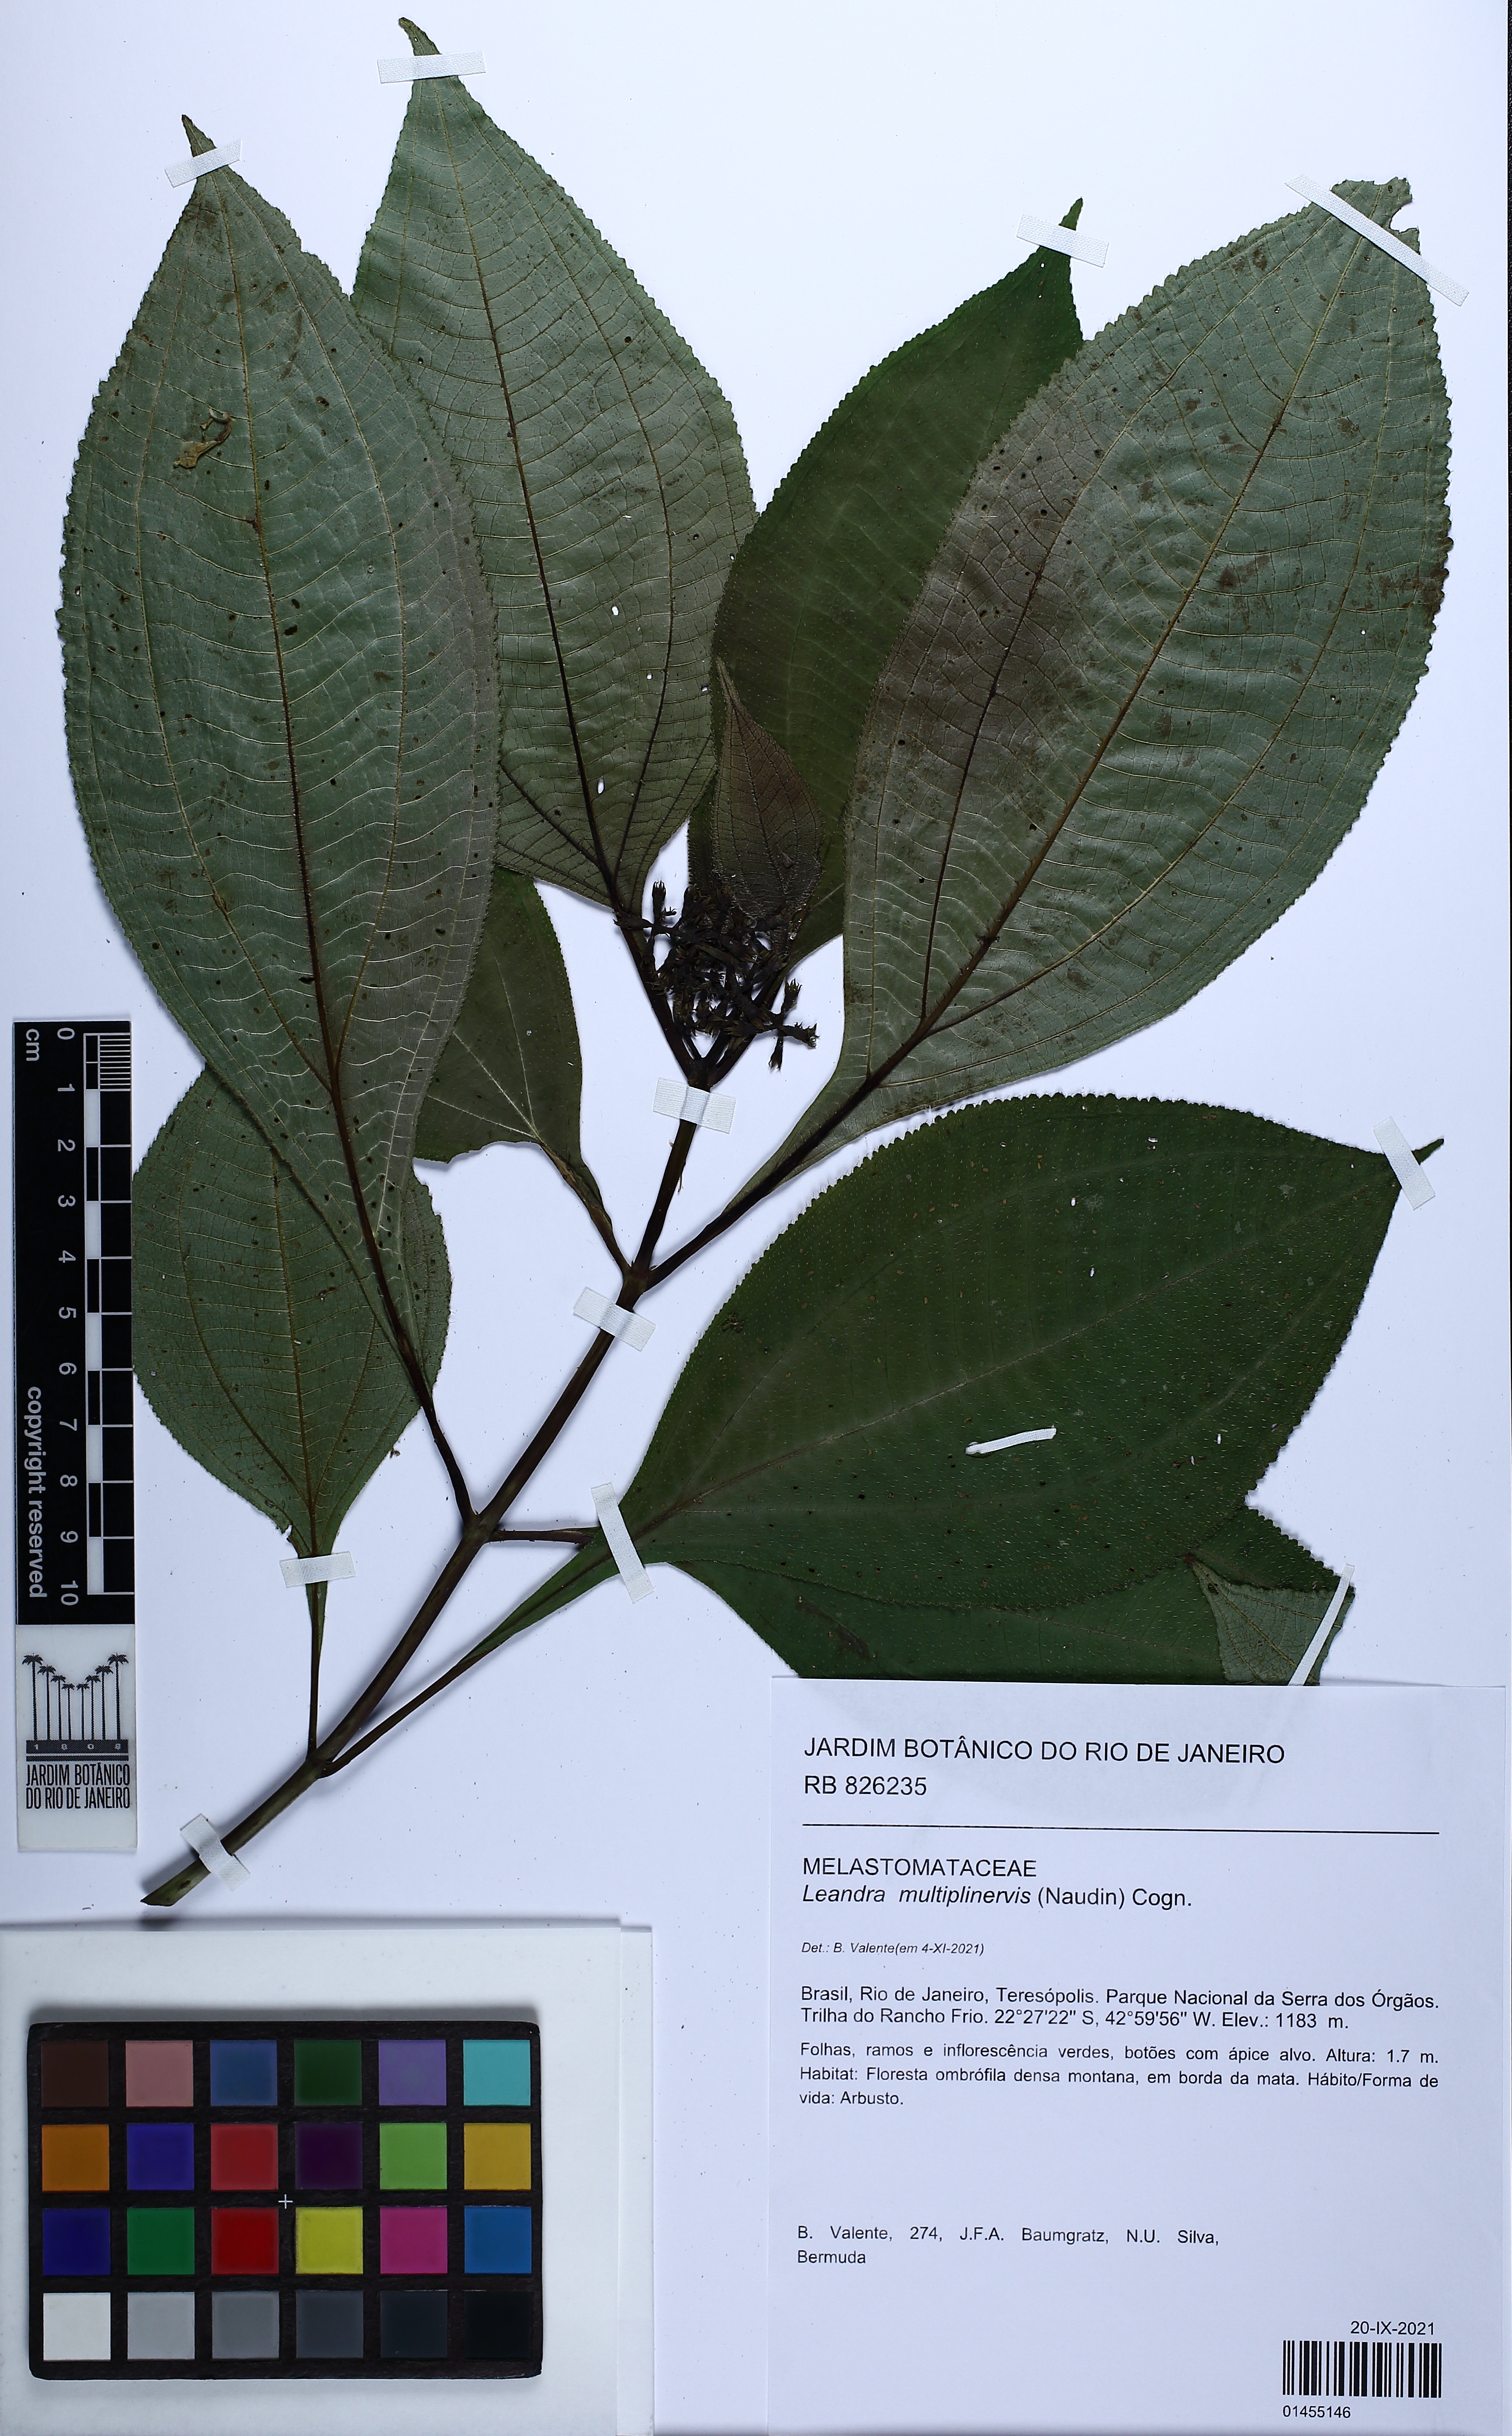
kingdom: Plantae
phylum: Tracheophyta
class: Magnoliopsida
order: Myrtales
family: Melastomataceae
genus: Miconia
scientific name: Miconia oocarpa
